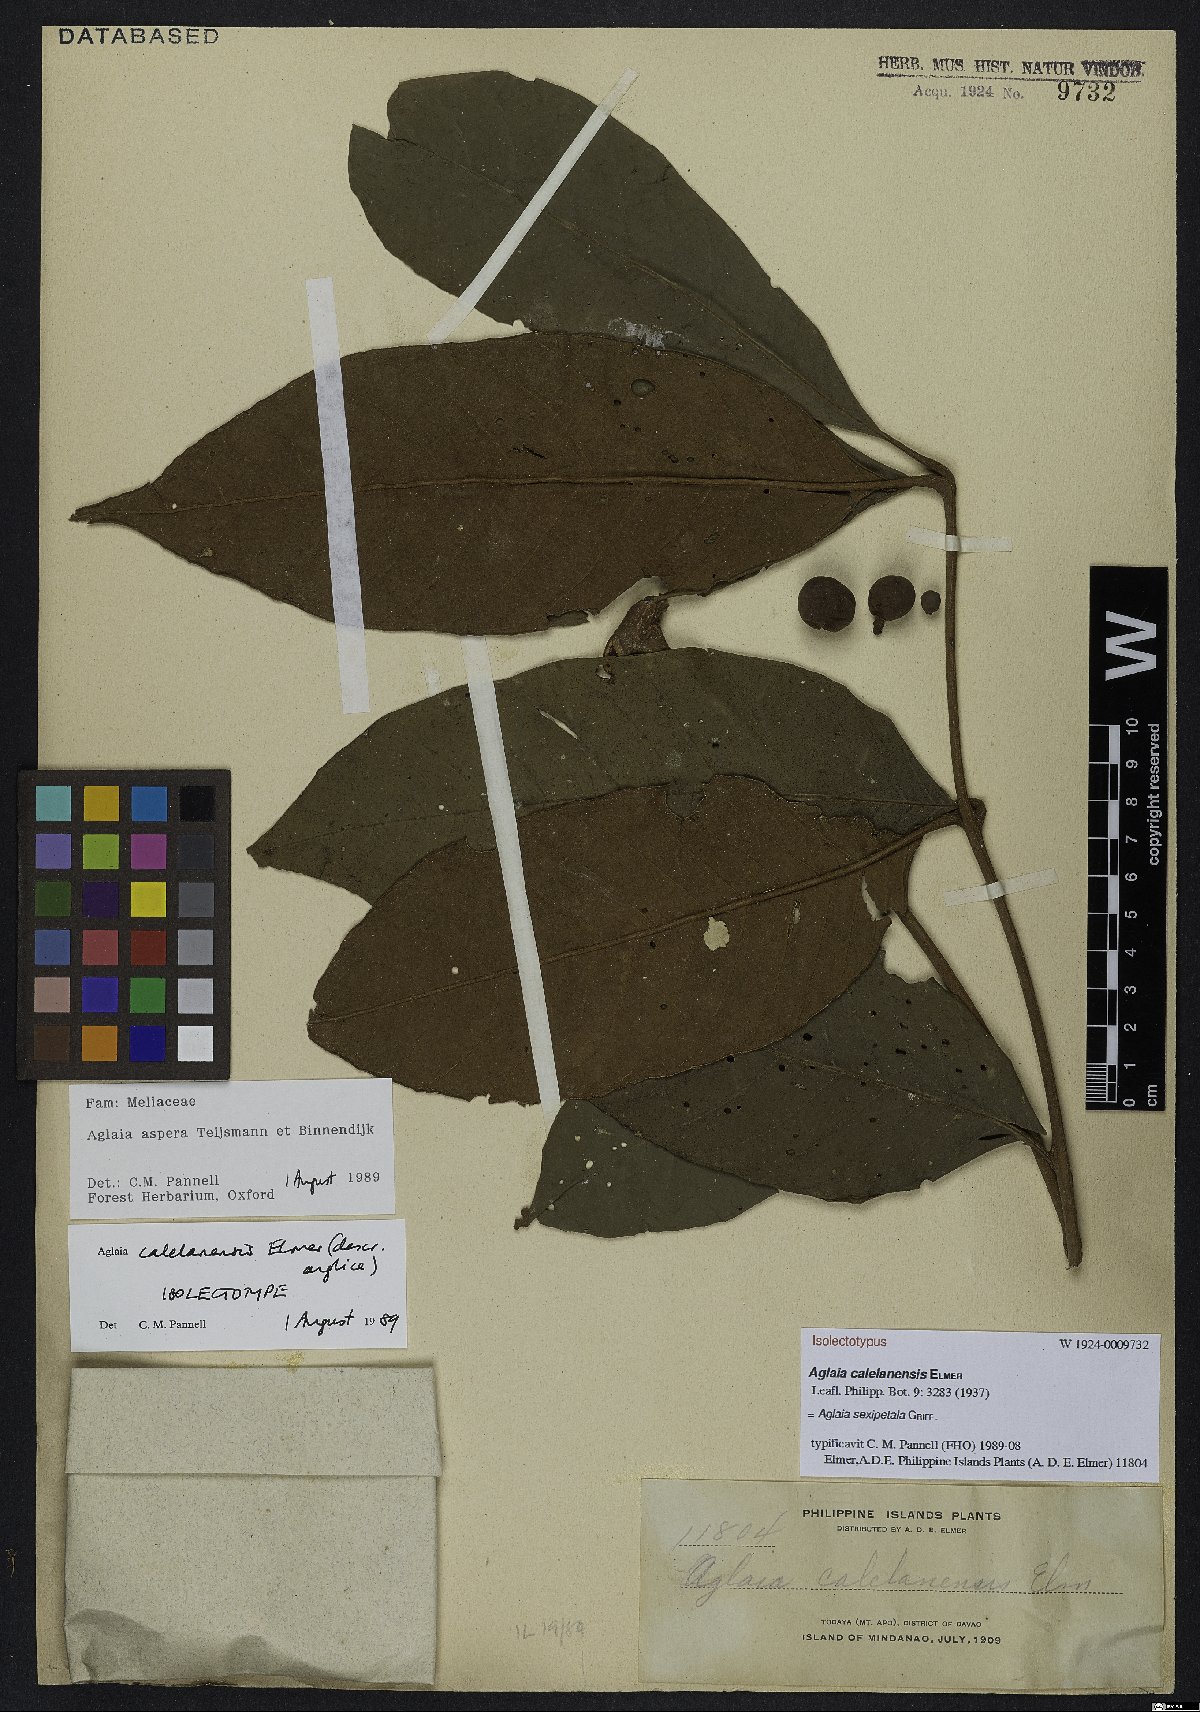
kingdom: Plantae
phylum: Tracheophyta
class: Magnoliopsida
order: Sapindales
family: Meliaceae
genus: Aglaia
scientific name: Aglaia sexipetala
